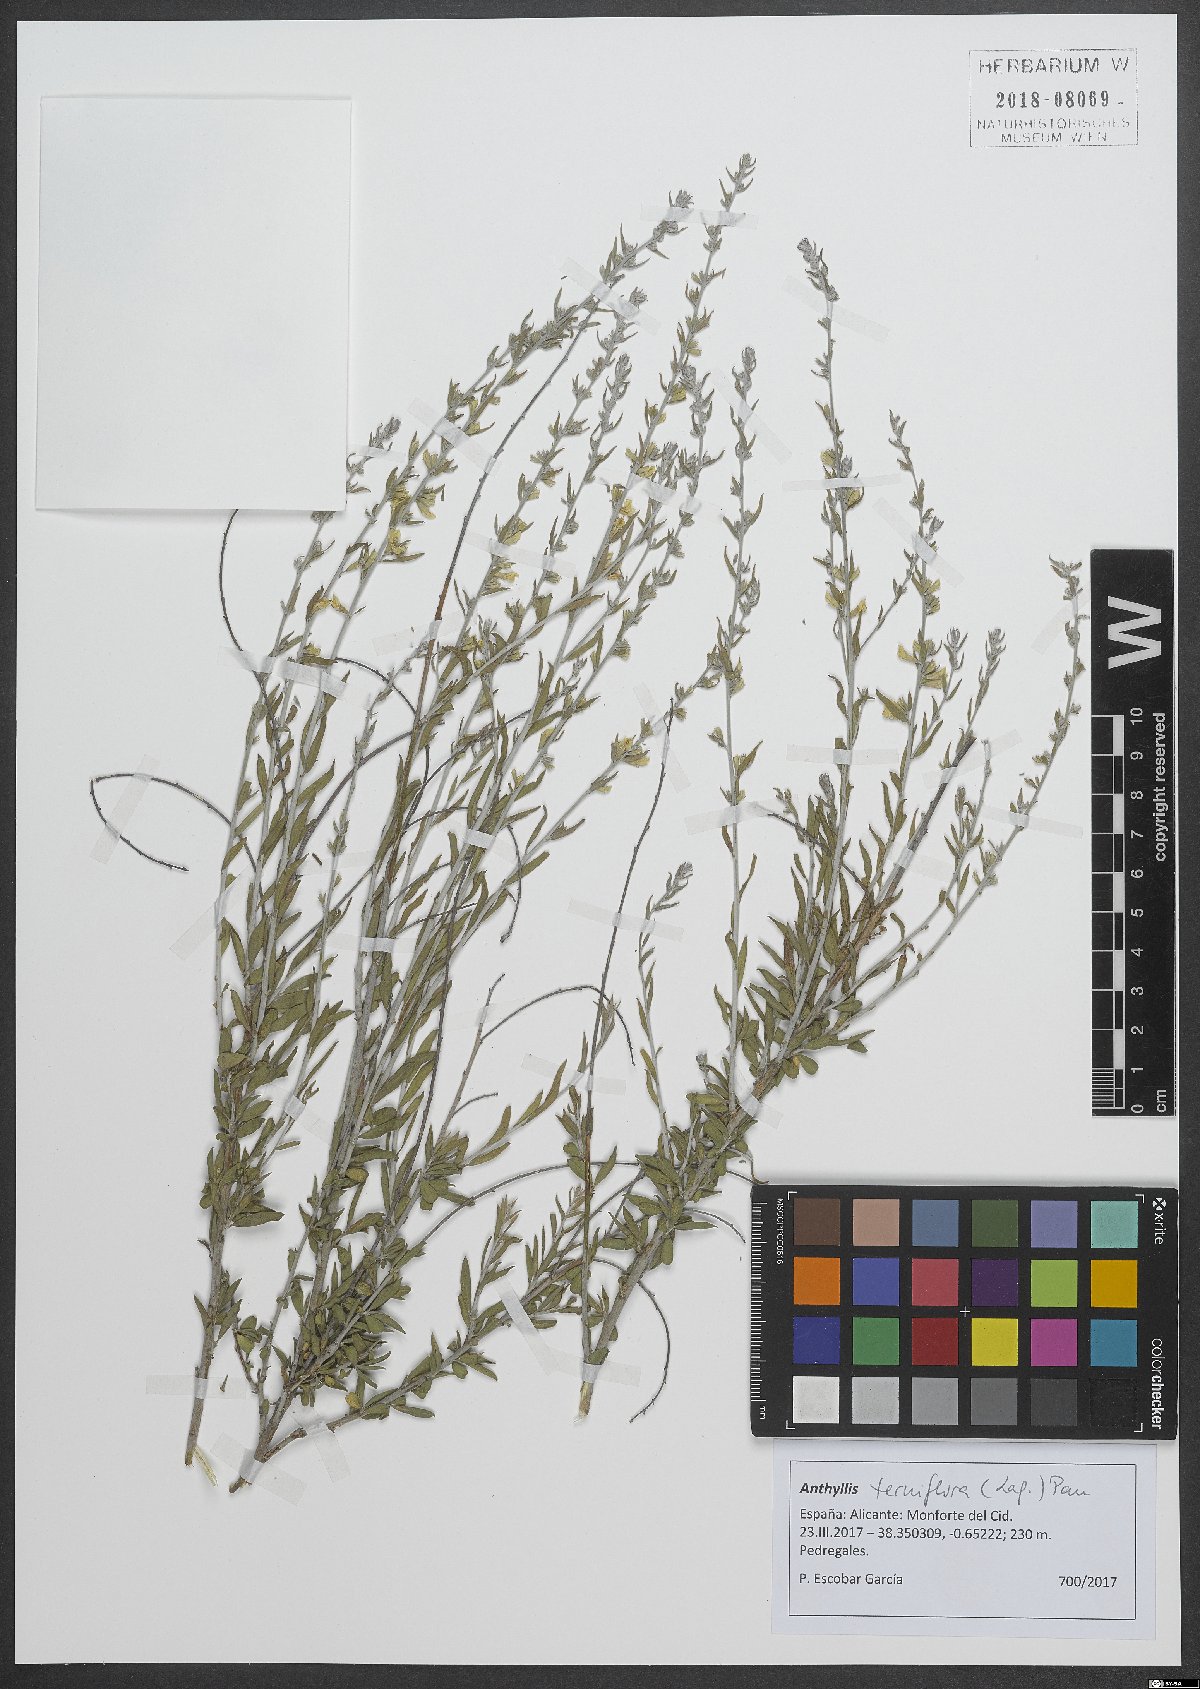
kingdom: Plantae
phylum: Tracheophyta
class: Magnoliopsida
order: Fabales
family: Fabaceae
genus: Anthyllis
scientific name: Anthyllis terniflora
